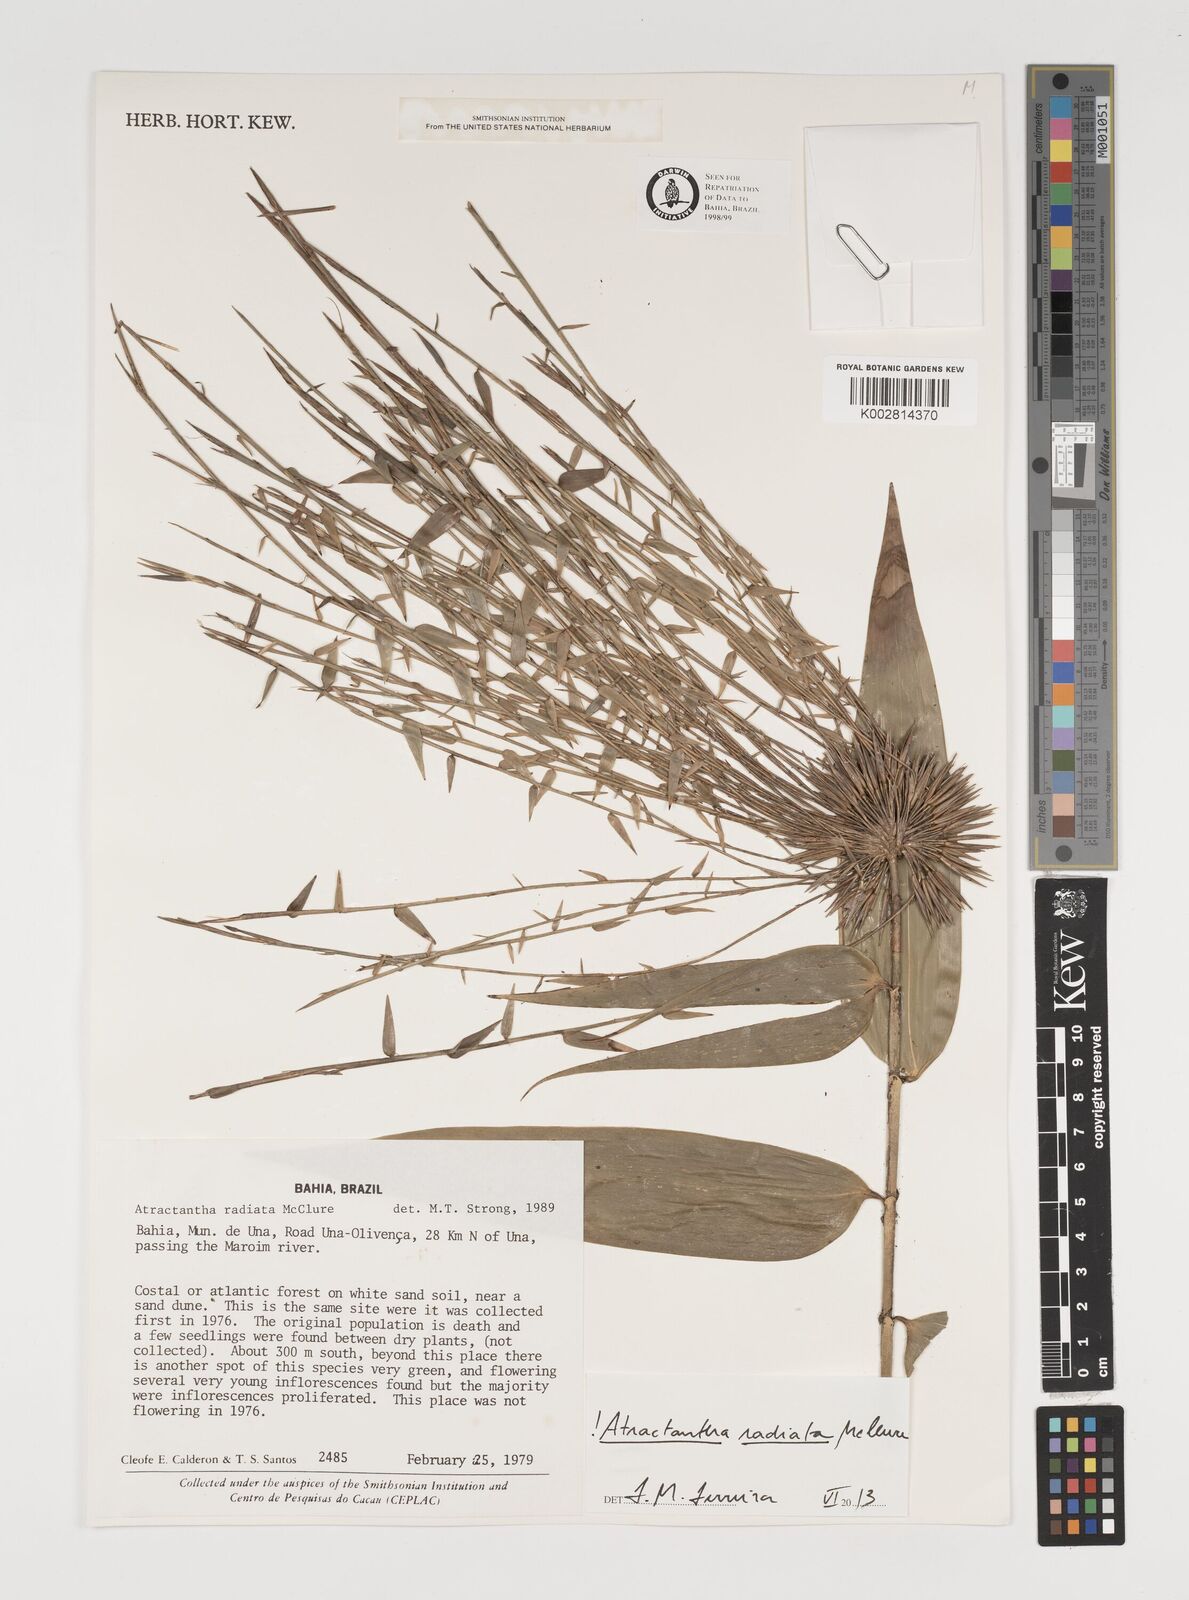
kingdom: Plantae
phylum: Tracheophyta
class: Liliopsida
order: Poales
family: Poaceae
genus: Atractantha
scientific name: Atractantha radiata
